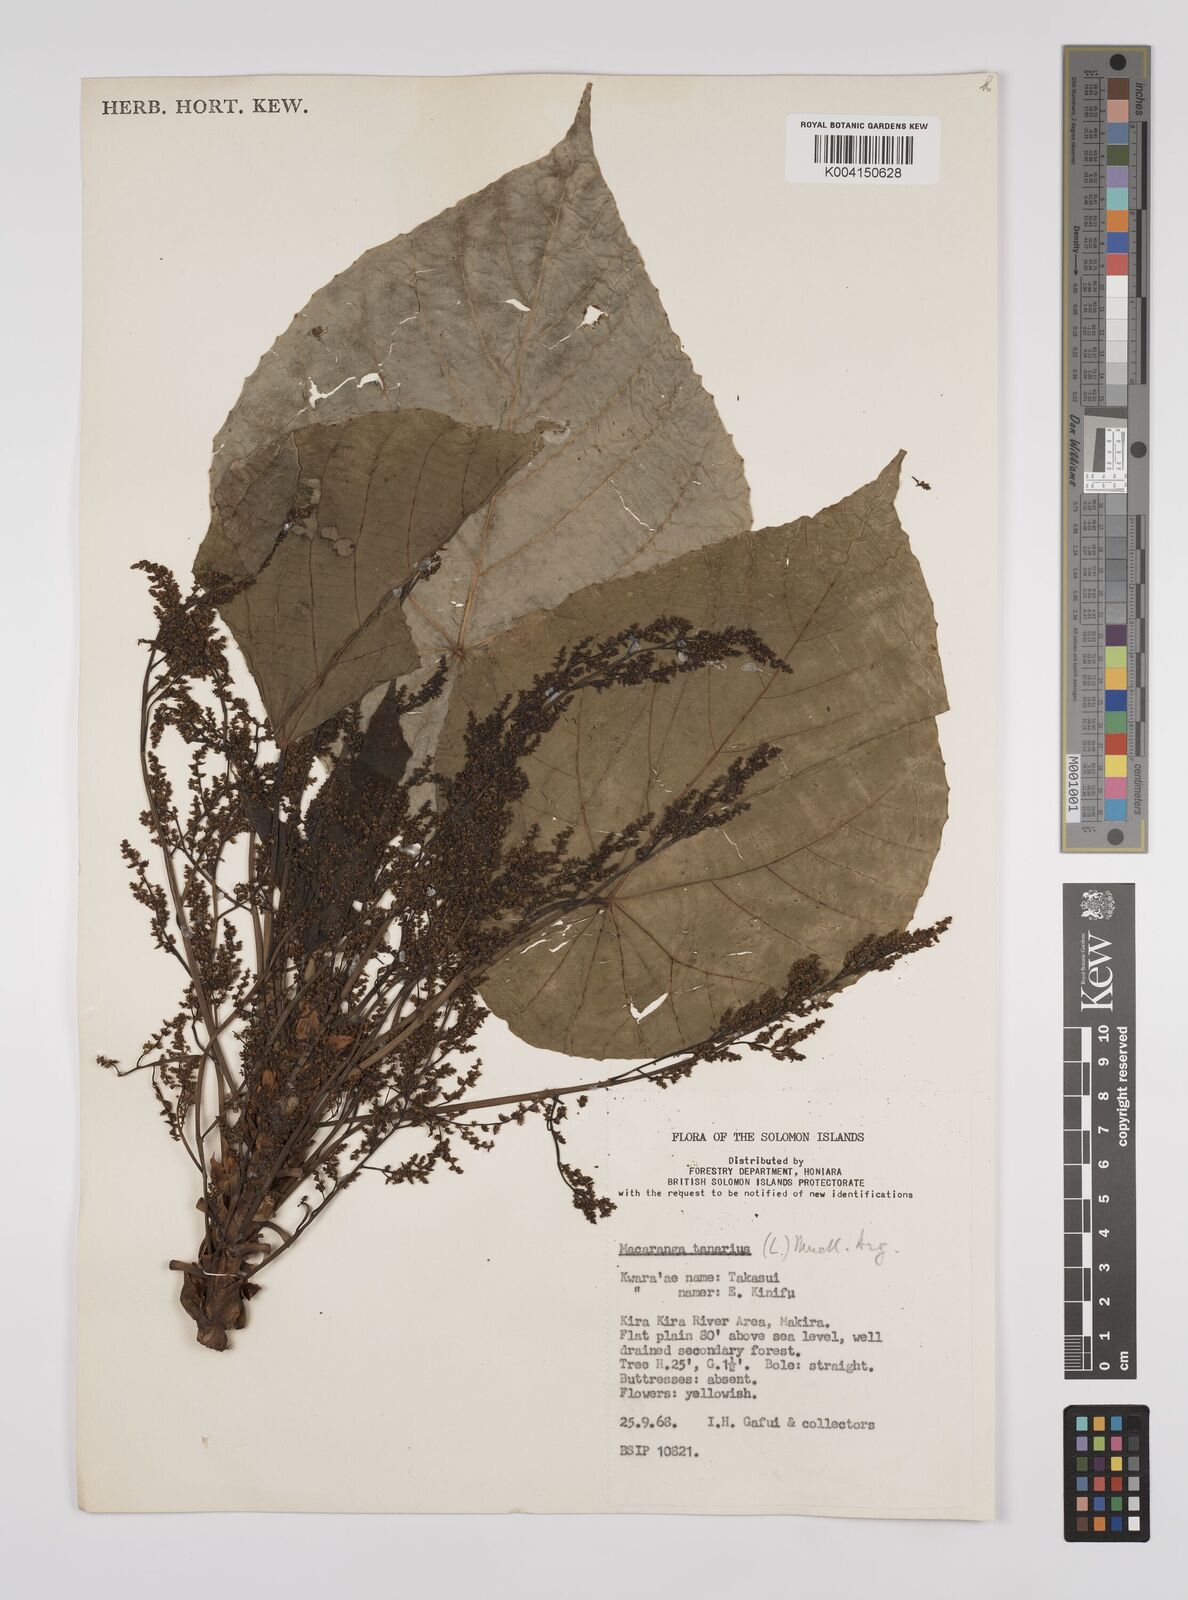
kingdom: Plantae
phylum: Tracheophyta
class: Magnoliopsida
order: Malpighiales
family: Euphorbiaceae
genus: Macaranga
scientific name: Macaranga tanarius
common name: Parasol leaf tree
